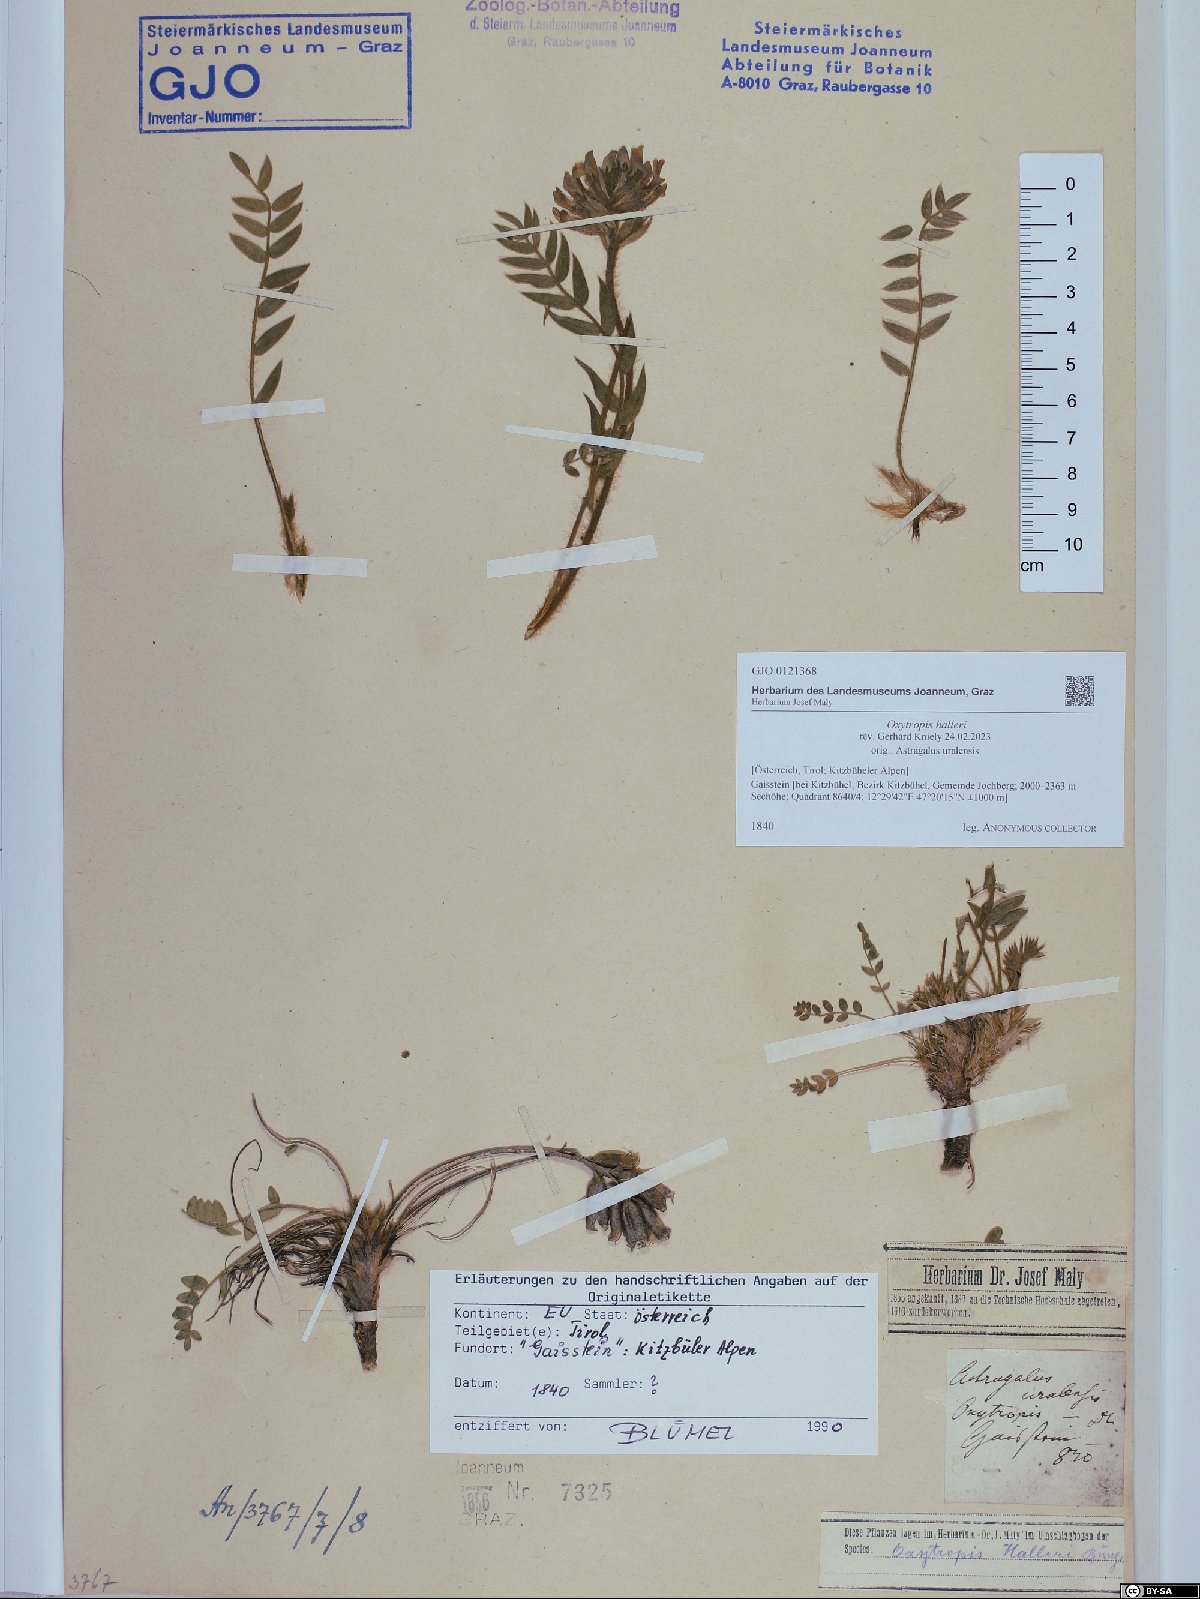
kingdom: Plantae
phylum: Tracheophyta
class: Magnoliopsida
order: Fabales
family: Fabaceae
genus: Oxytropis
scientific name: Oxytropis halleri
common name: Purple oxytropis
